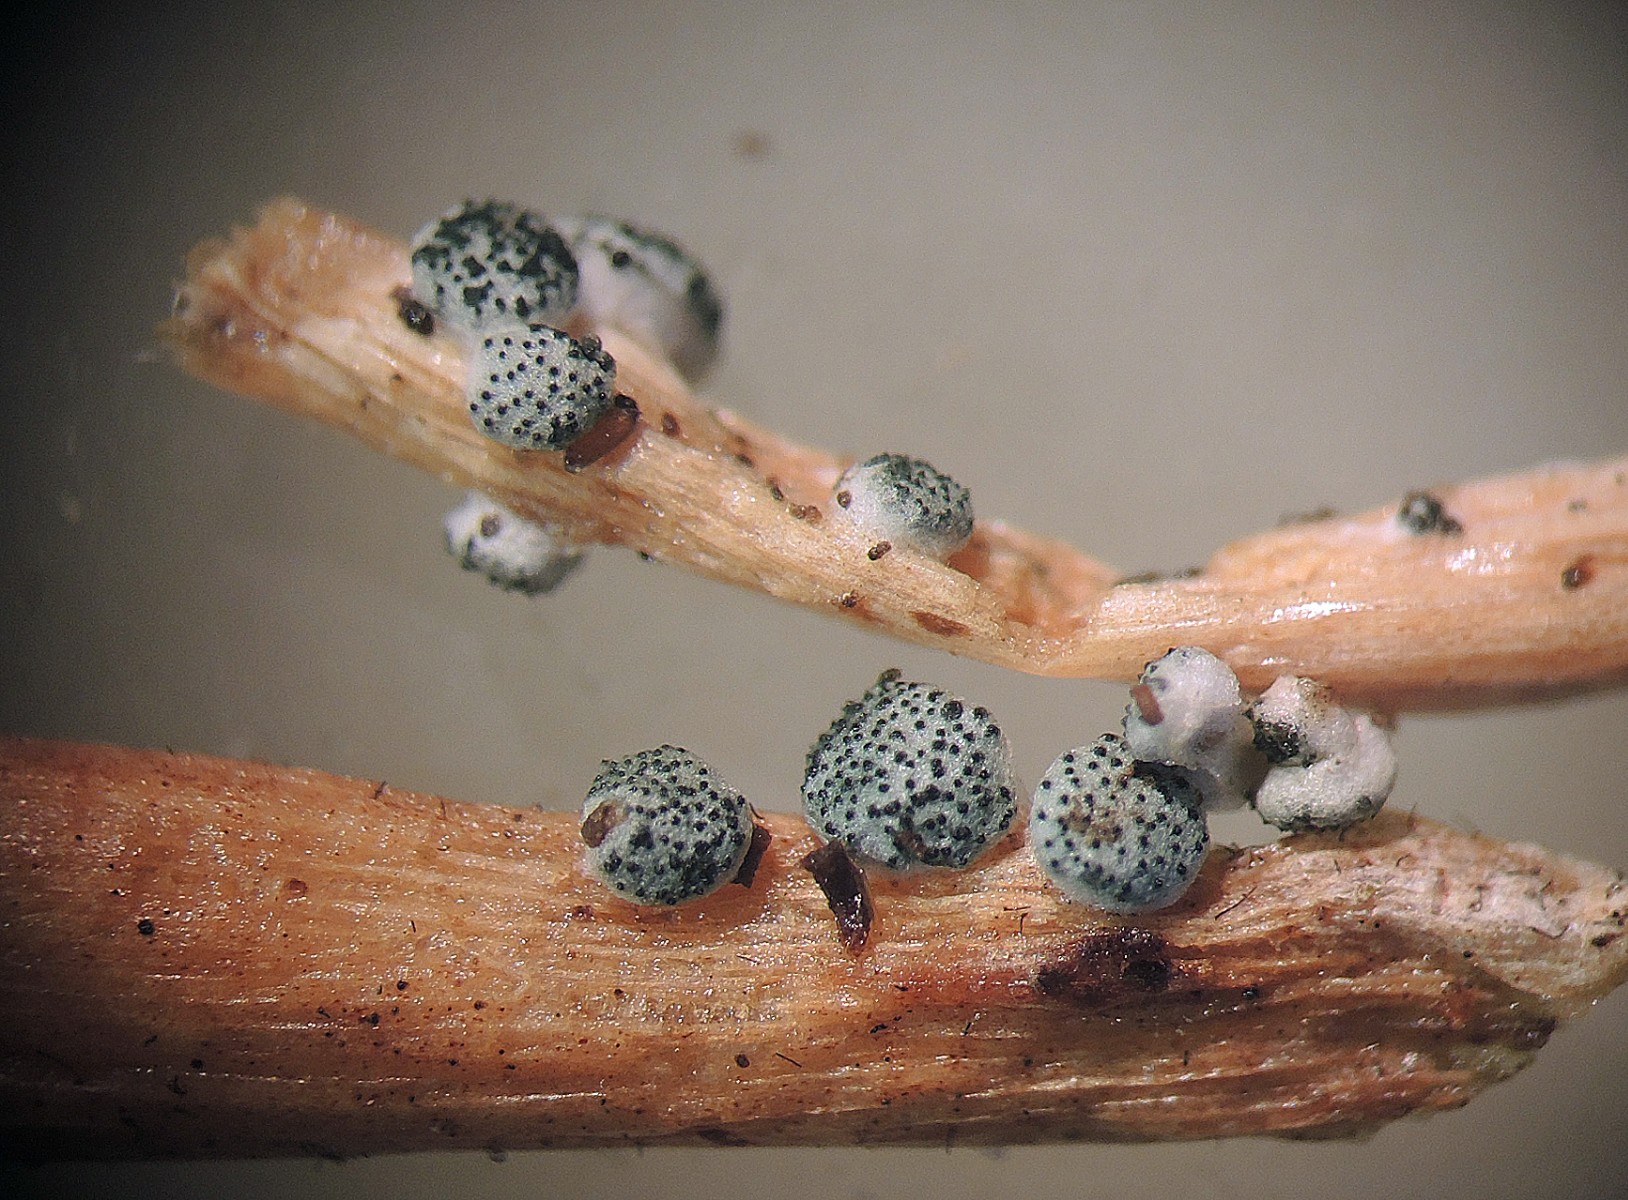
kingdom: Fungi
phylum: Ascomycota
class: Sordariomycetes
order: Hypocreales
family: Hypocreaceae
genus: Trichoderma
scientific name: Trichoderma spinulosum
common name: grågrøn kødkerne
